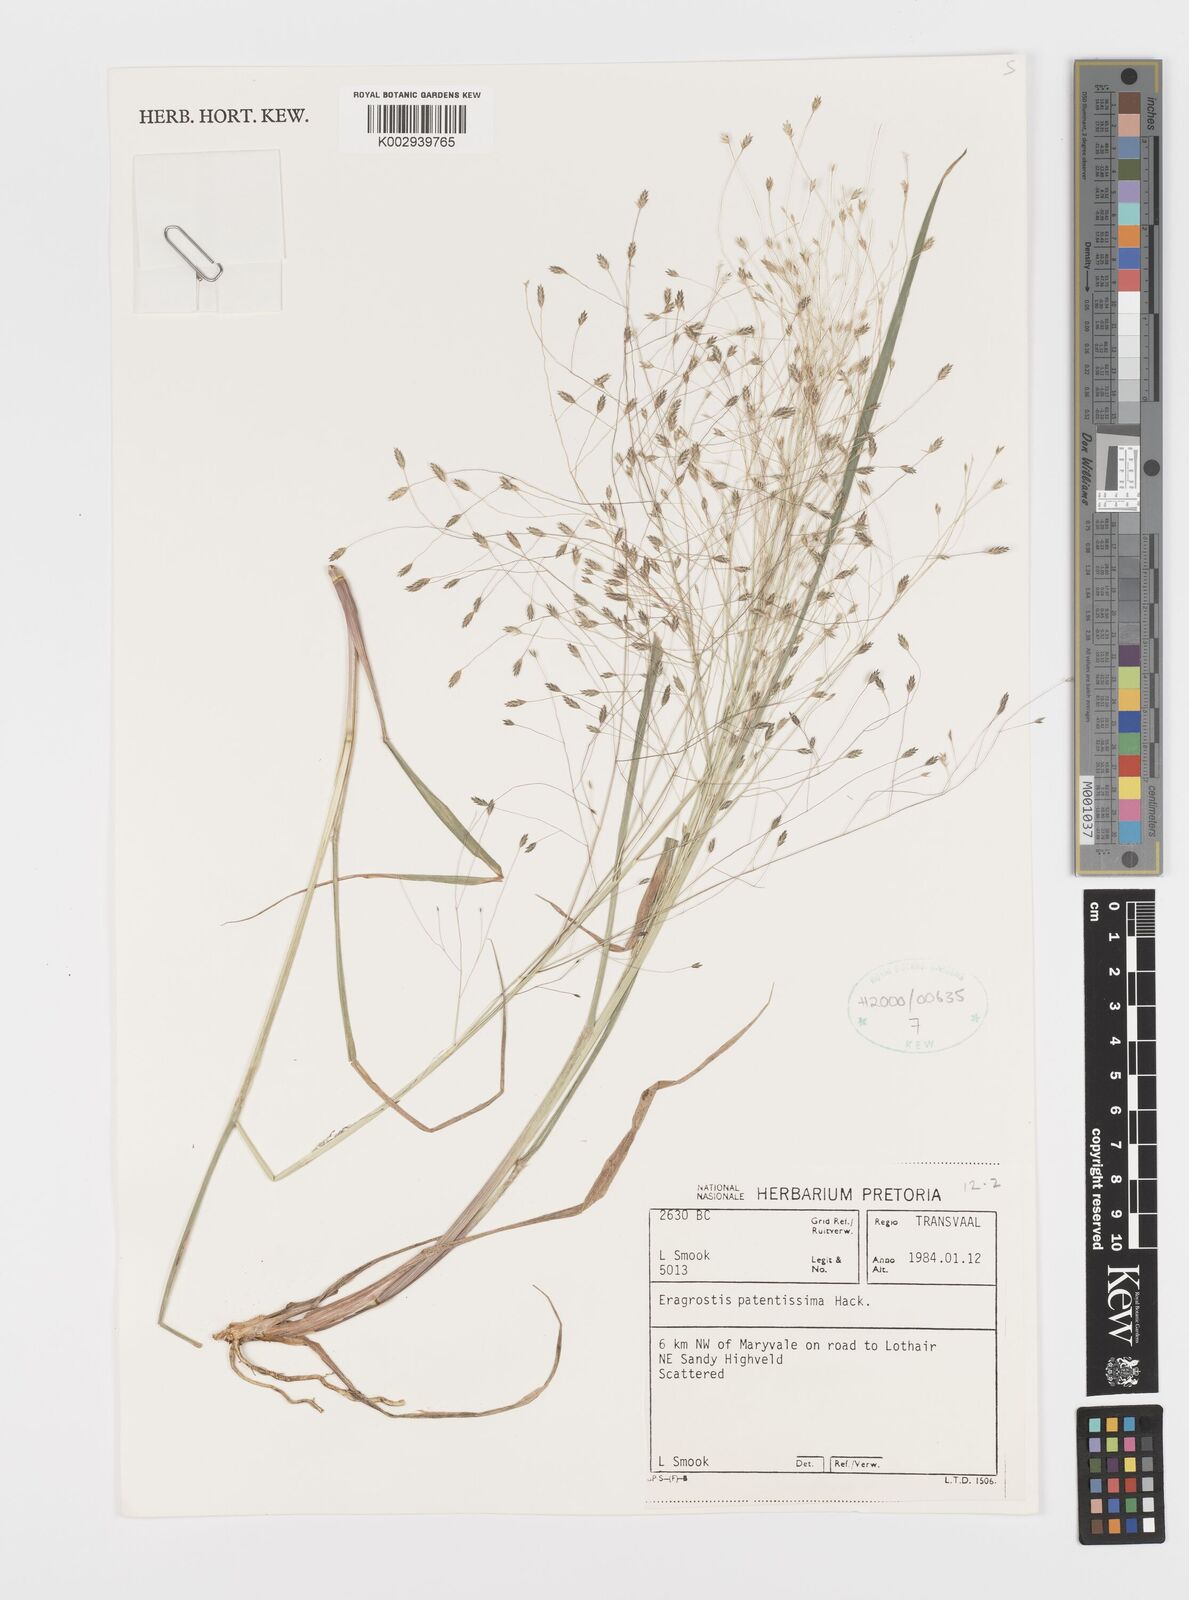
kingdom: Plantae
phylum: Tracheophyta
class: Liliopsida
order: Poales
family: Poaceae
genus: Eragrostis
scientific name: Eragrostis patentissima
